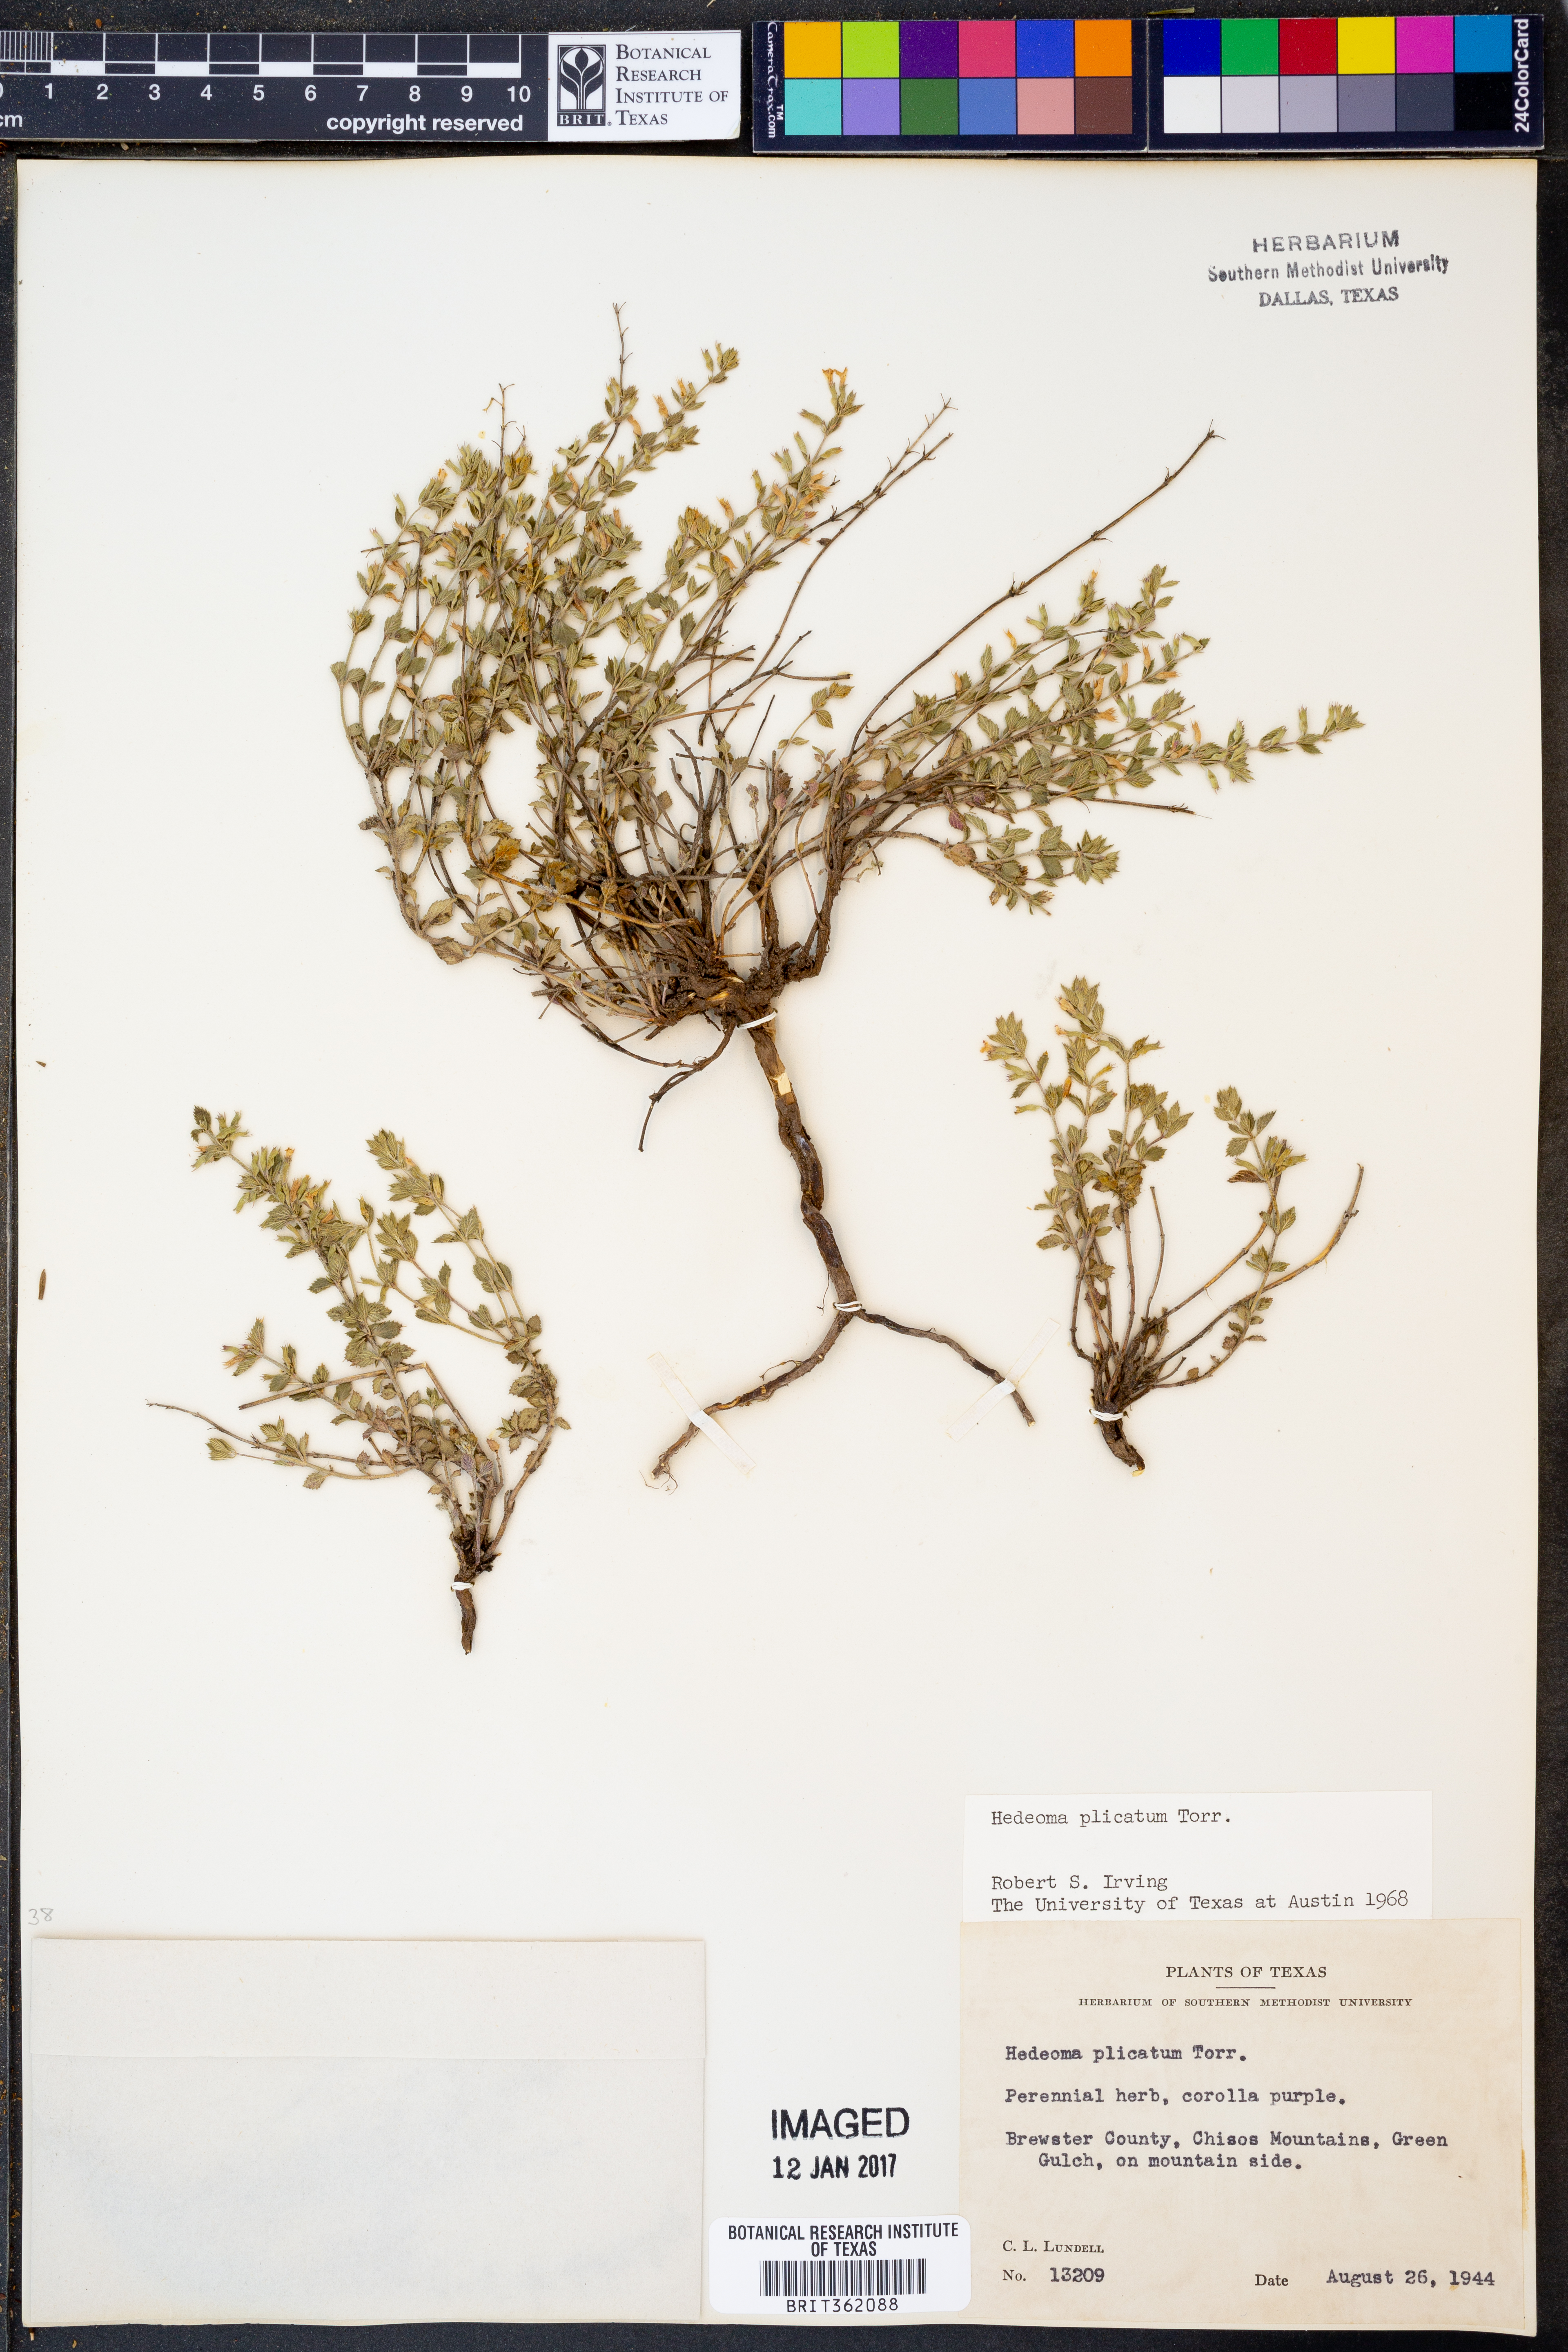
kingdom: Plantae
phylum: Tracheophyta
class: Magnoliopsida
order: Lamiales
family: Lamiaceae
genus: Hedeoma
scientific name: Hedeoma plicata
